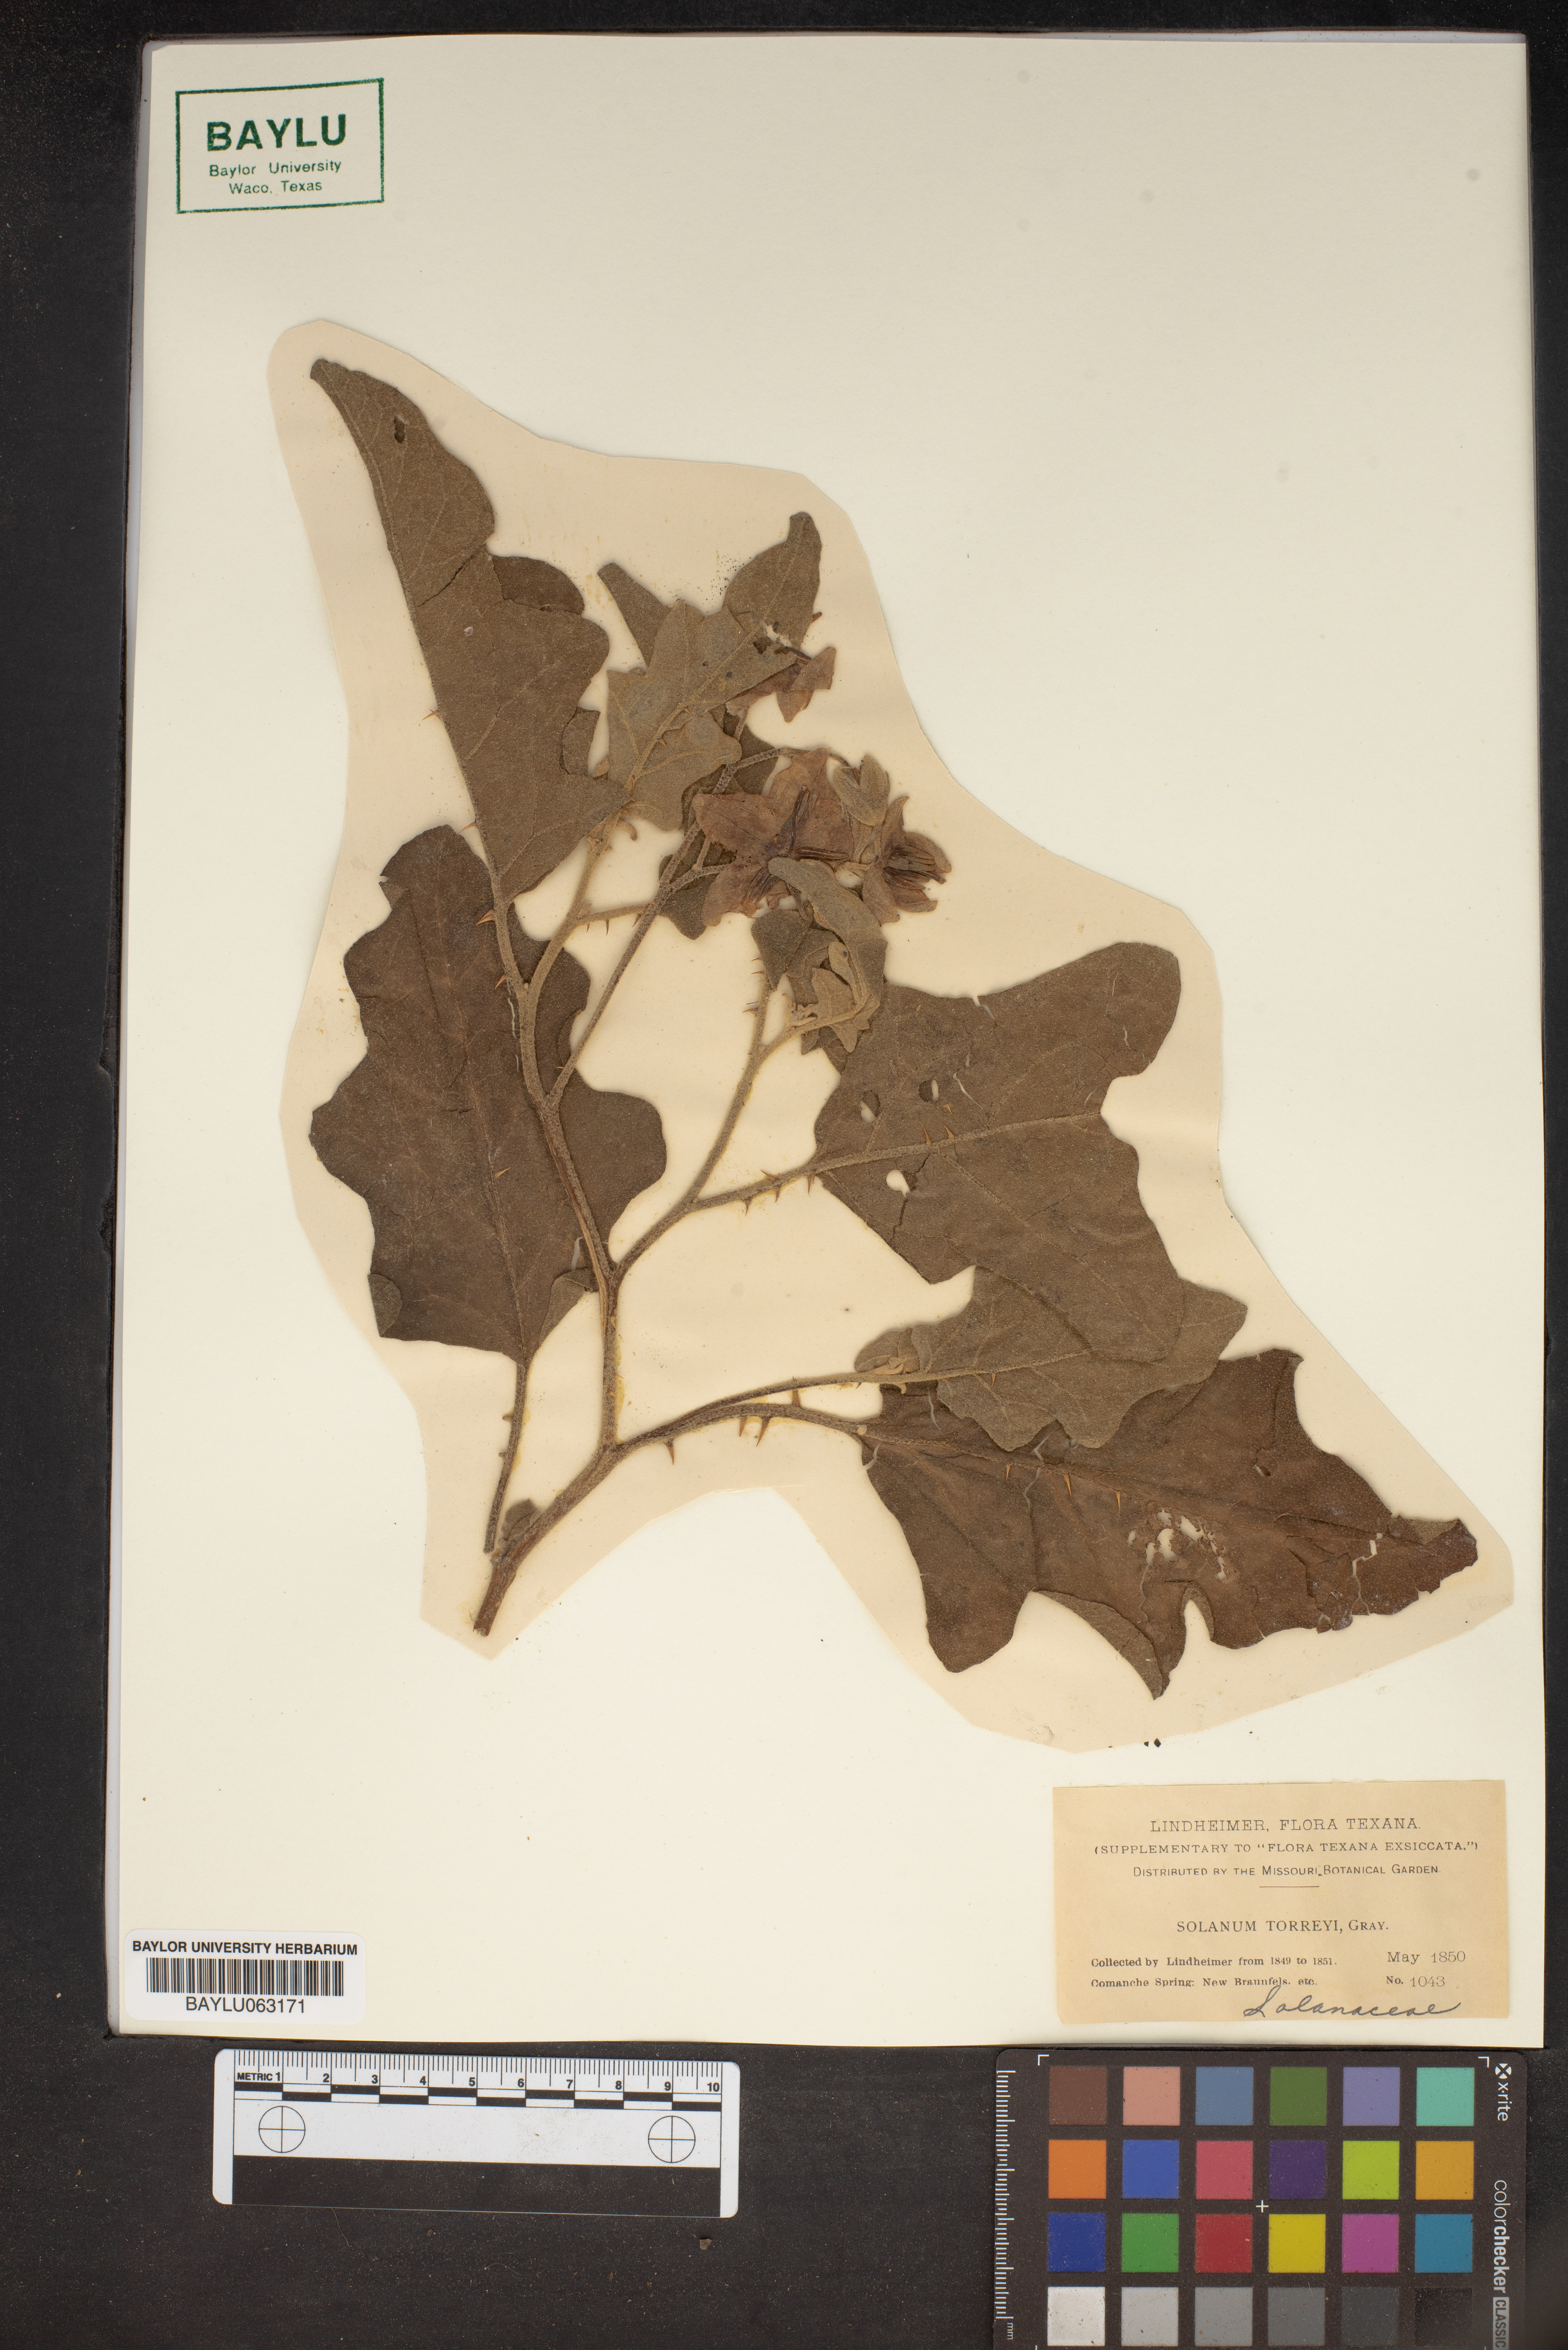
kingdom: Plantae
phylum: Tracheophyta
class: Magnoliopsida
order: Solanales
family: Solanaceae
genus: Solanum
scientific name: Solanum dimidiatum
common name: Carolina horse-nettle
